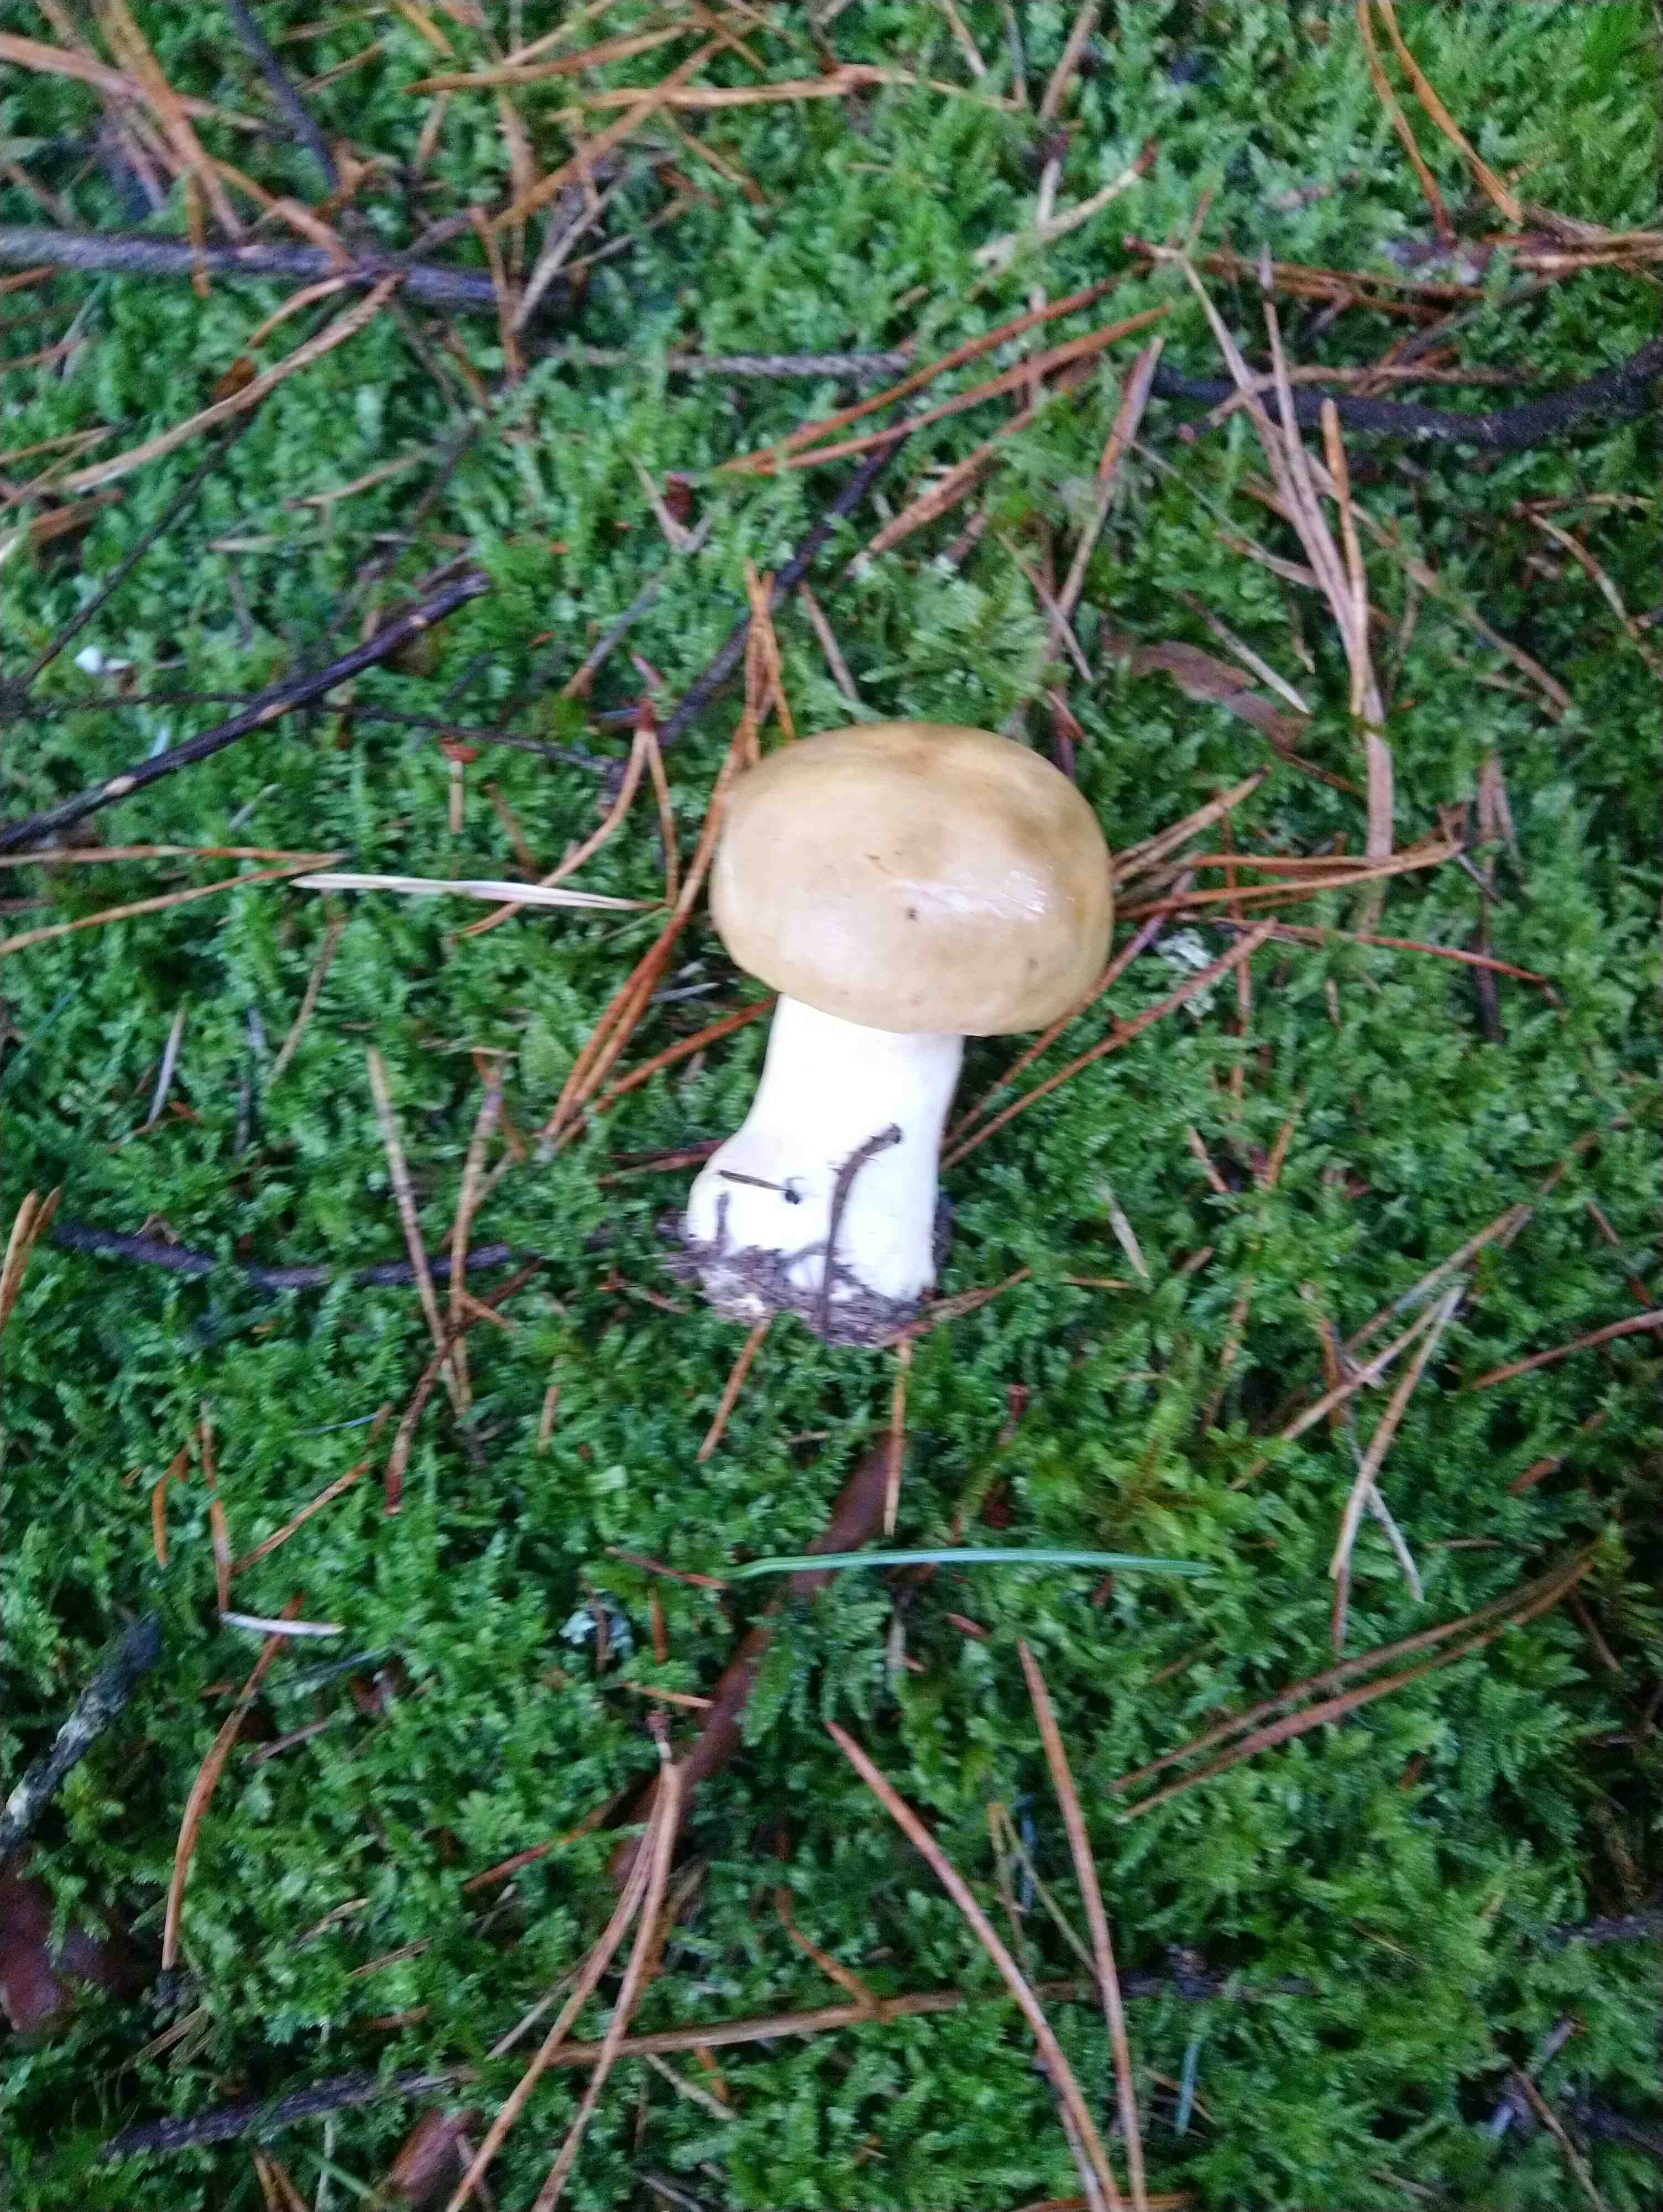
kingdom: Fungi
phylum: Basidiomycota
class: Agaricomycetes
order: Agaricales
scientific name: Agaricales
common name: champignonordenen
